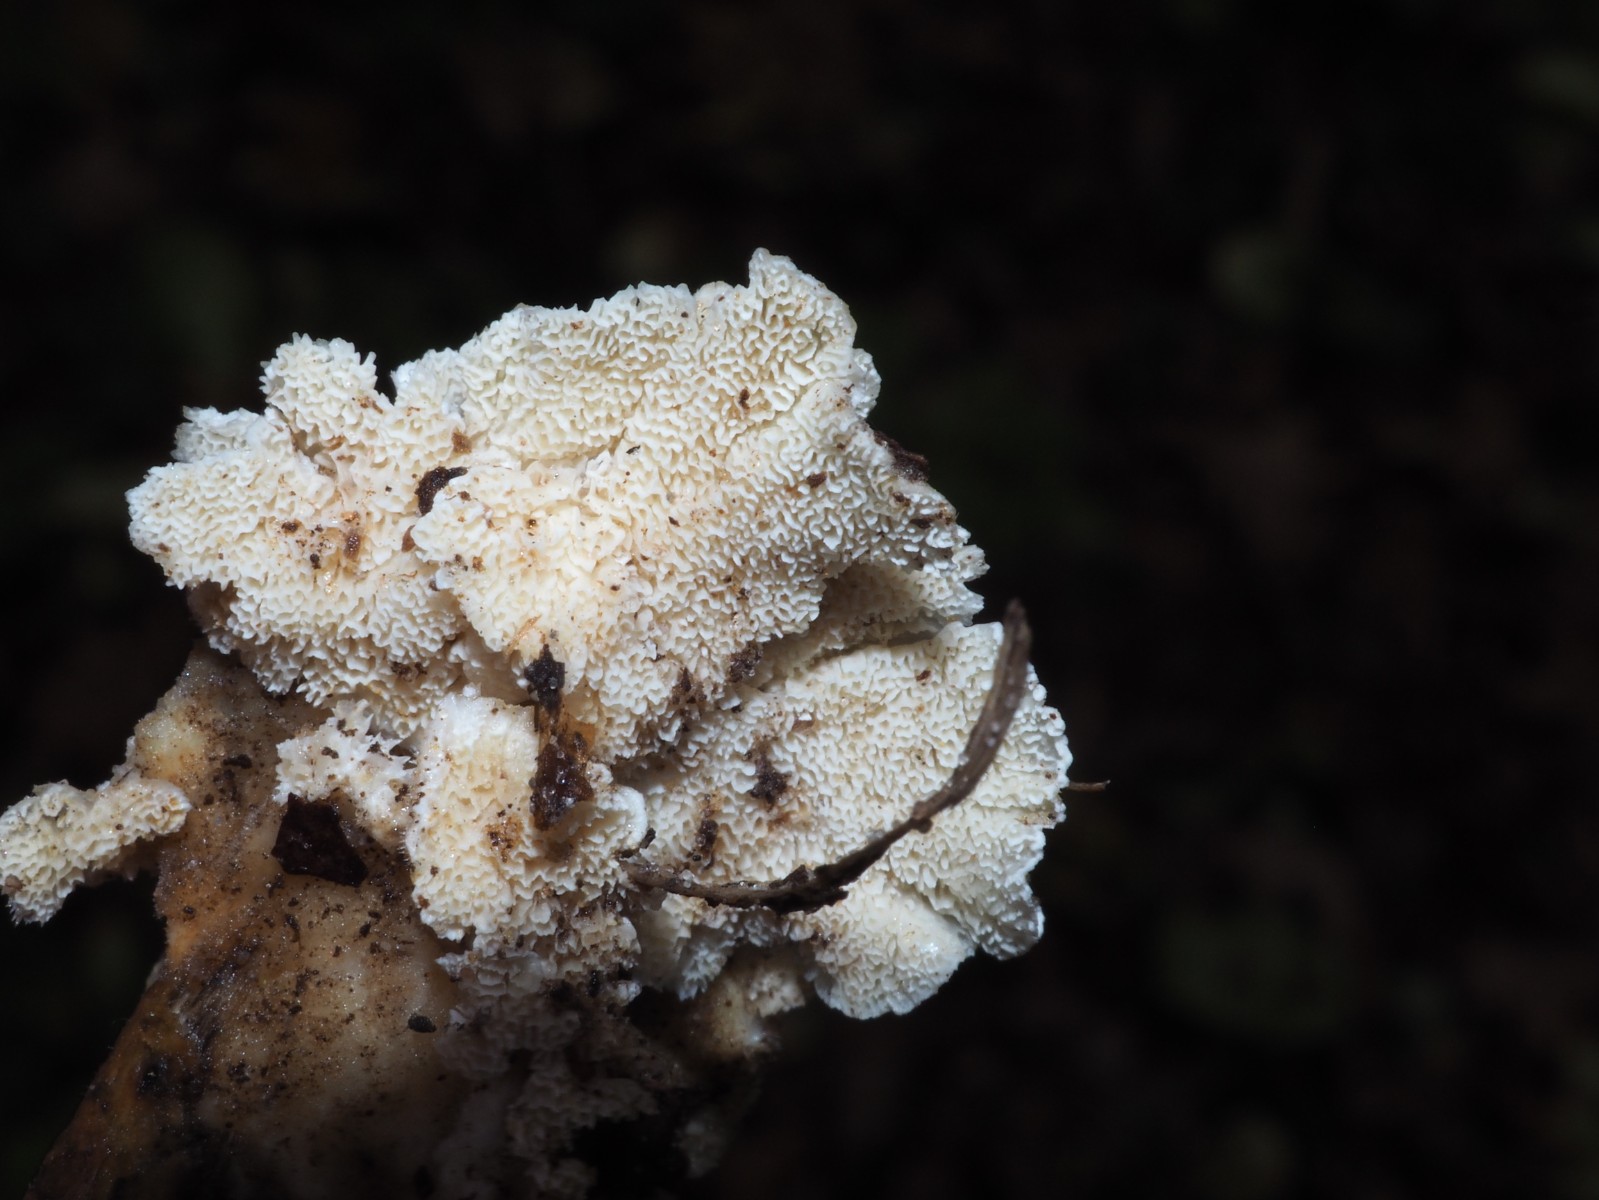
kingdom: Fungi
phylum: Basidiomycota
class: Agaricomycetes
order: Polyporales
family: Podoscyphaceae
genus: Abortiporus
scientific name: Abortiporus biennis
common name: rødmende pjalteporesvamp
